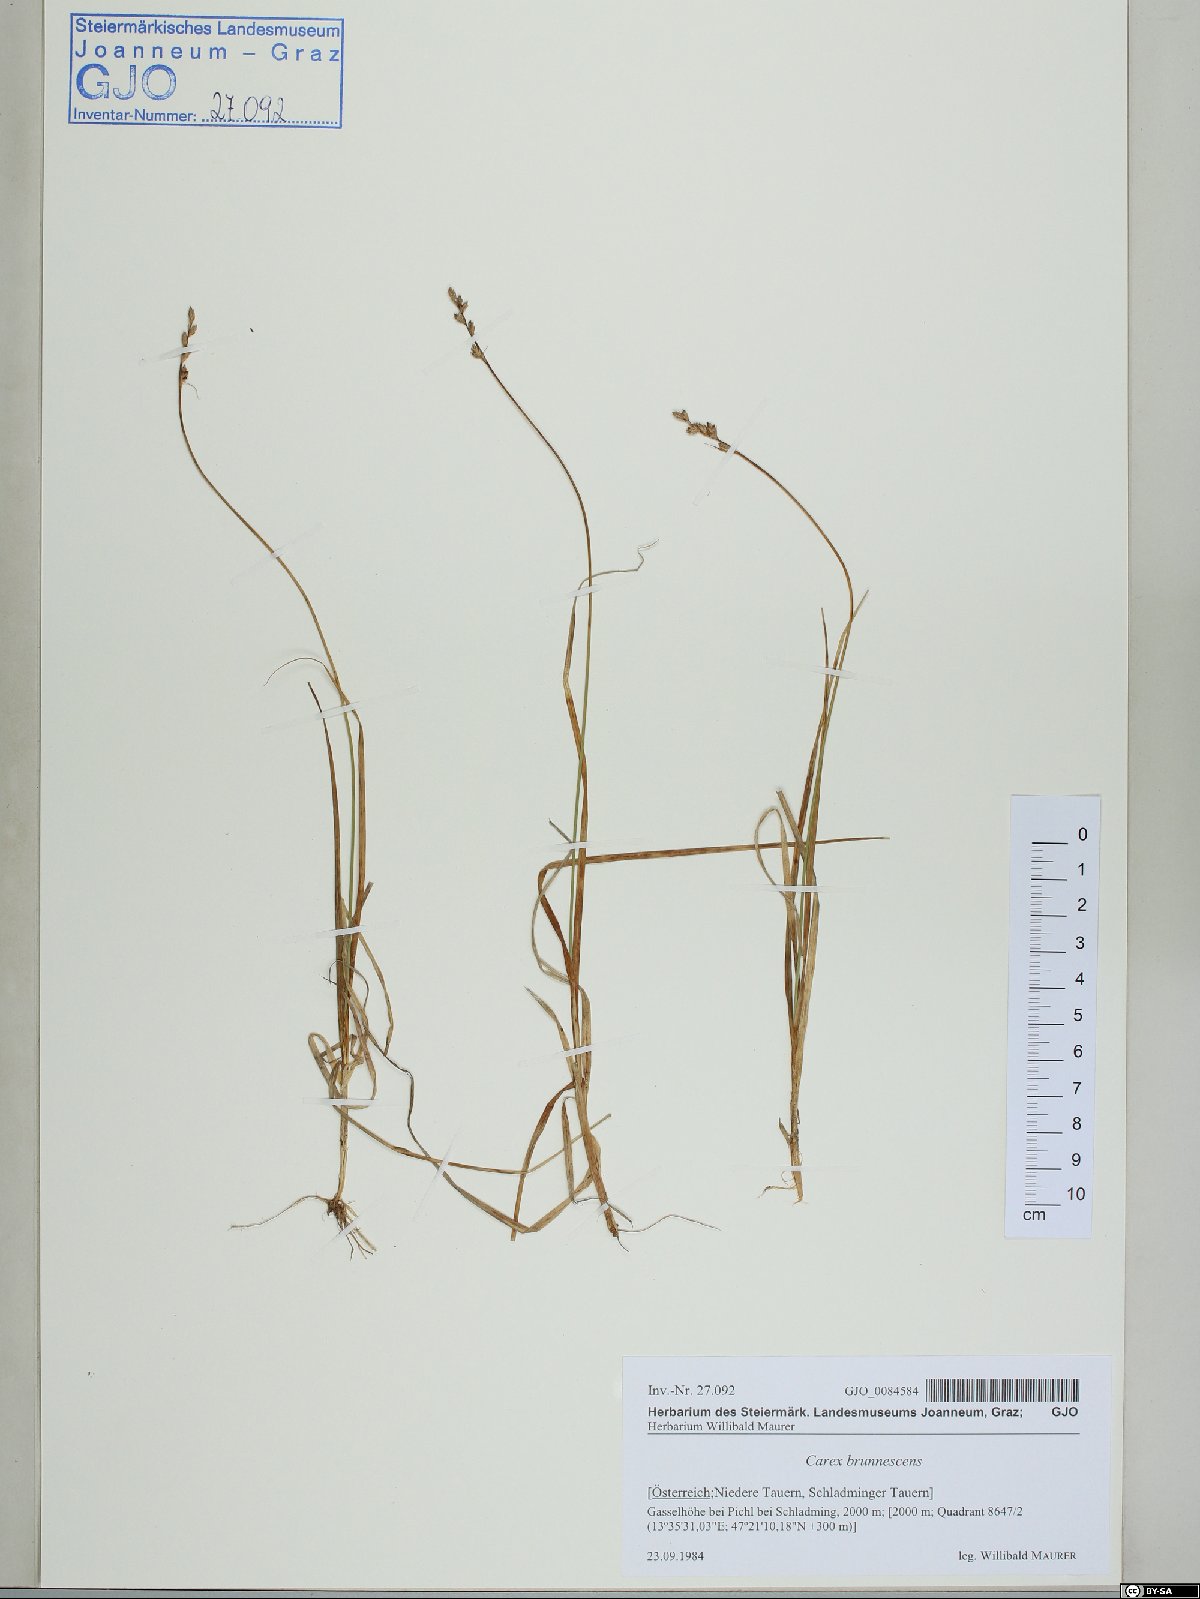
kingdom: Plantae
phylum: Tracheophyta
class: Liliopsida
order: Poales
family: Cyperaceae
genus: Carex
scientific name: Carex brunnescens
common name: Brown sedge
